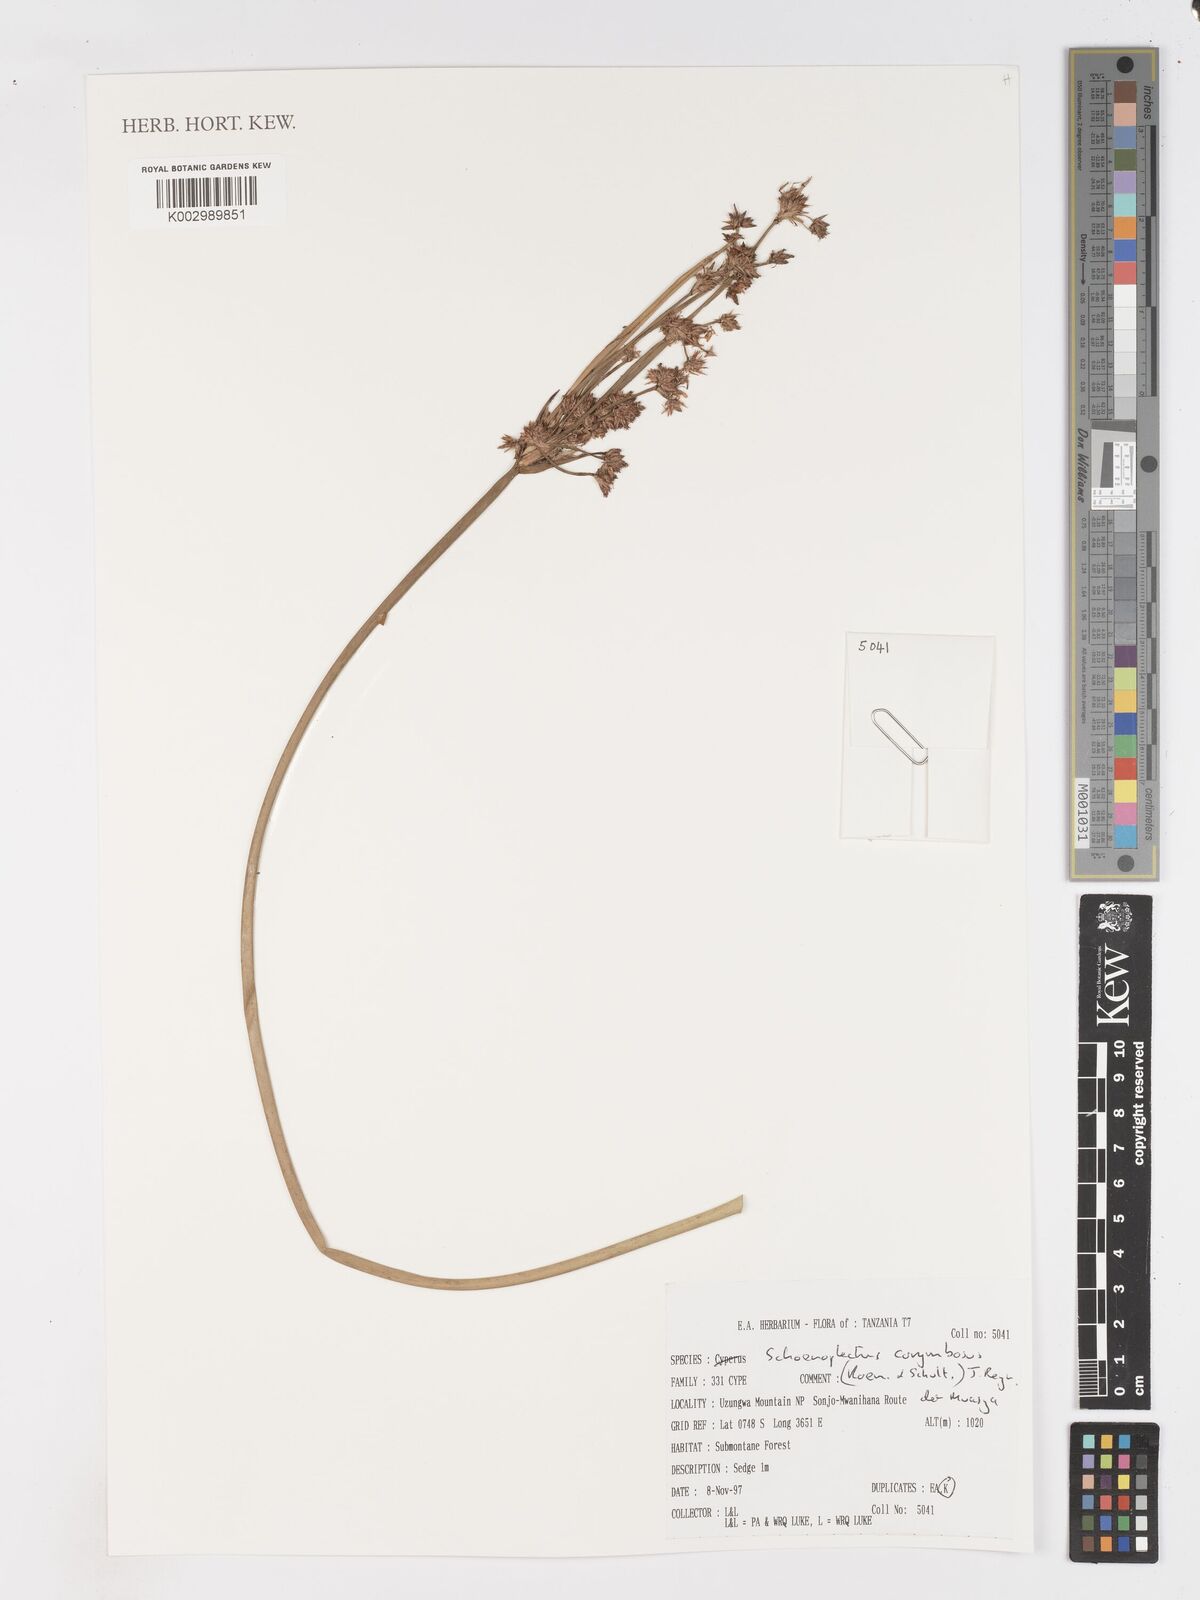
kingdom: Plantae
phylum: Tracheophyta
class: Liliopsida
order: Poales
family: Cyperaceae
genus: Schoenoplectiella
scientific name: Schoenoplectiella corymbosa
